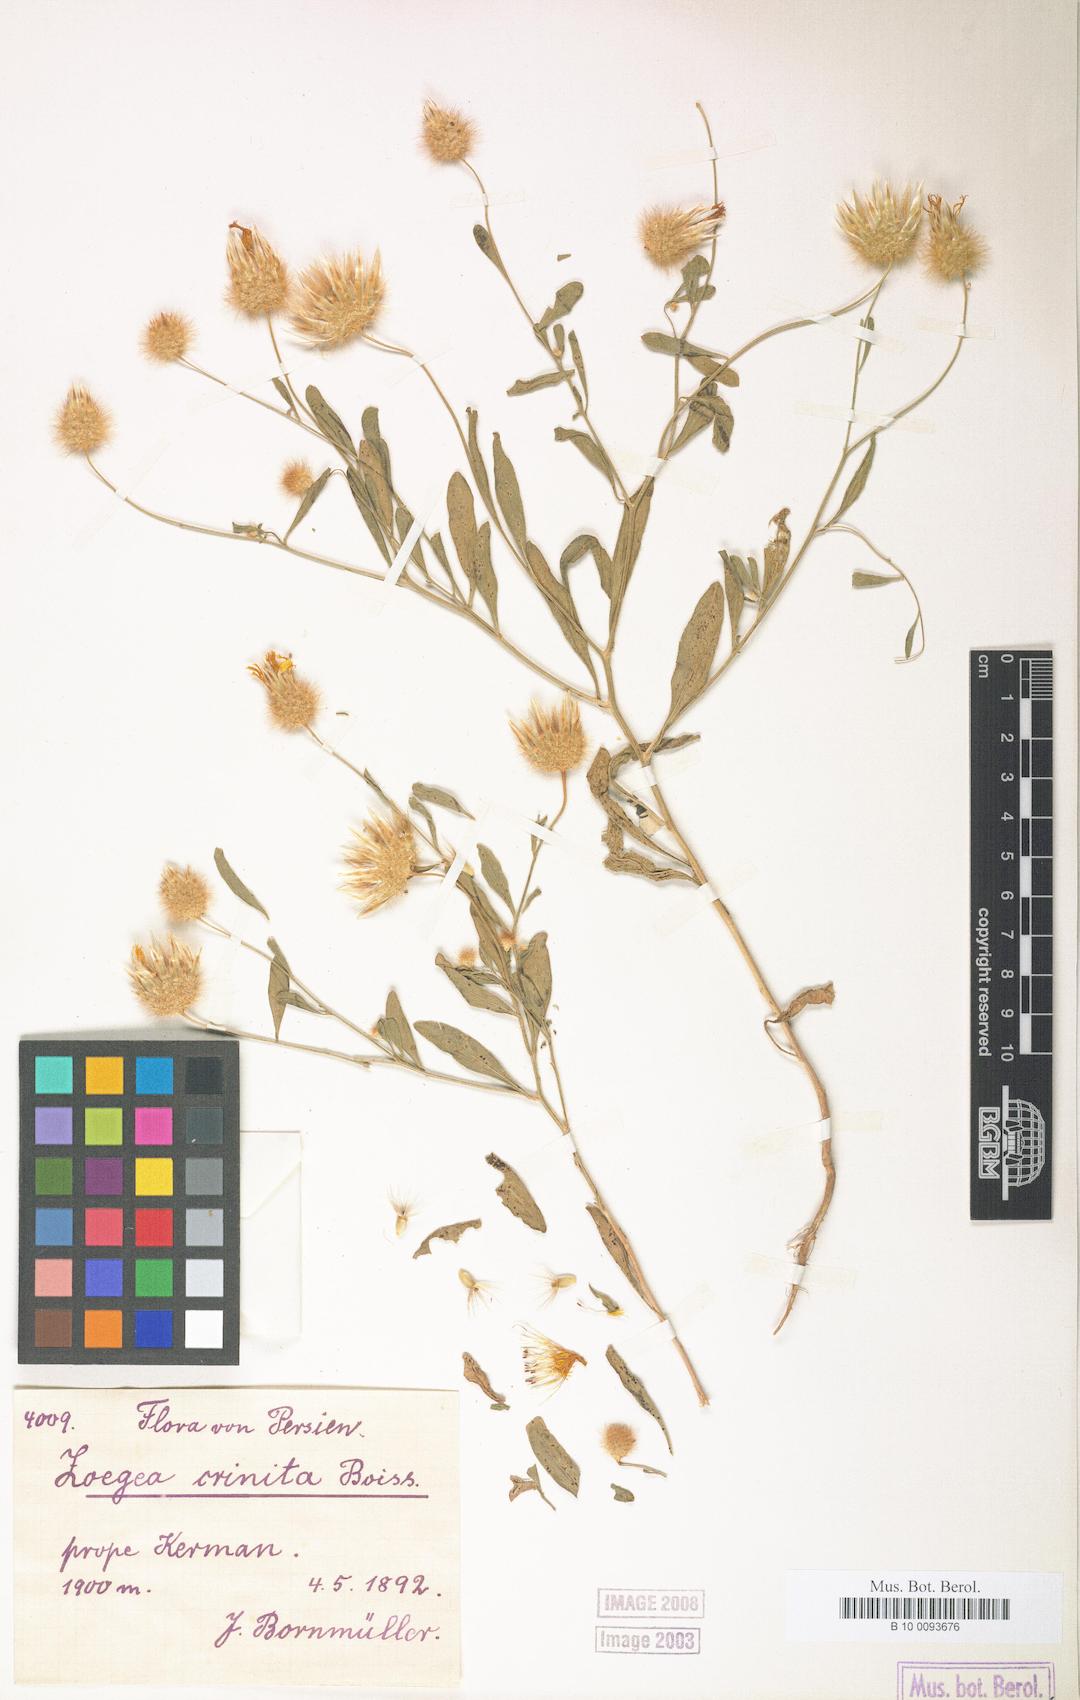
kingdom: Plantae
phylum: Tracheophyta
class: Magnoliopsida
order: Asterales
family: Asteraceae
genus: Zoegea
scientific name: Zoegea crinita
